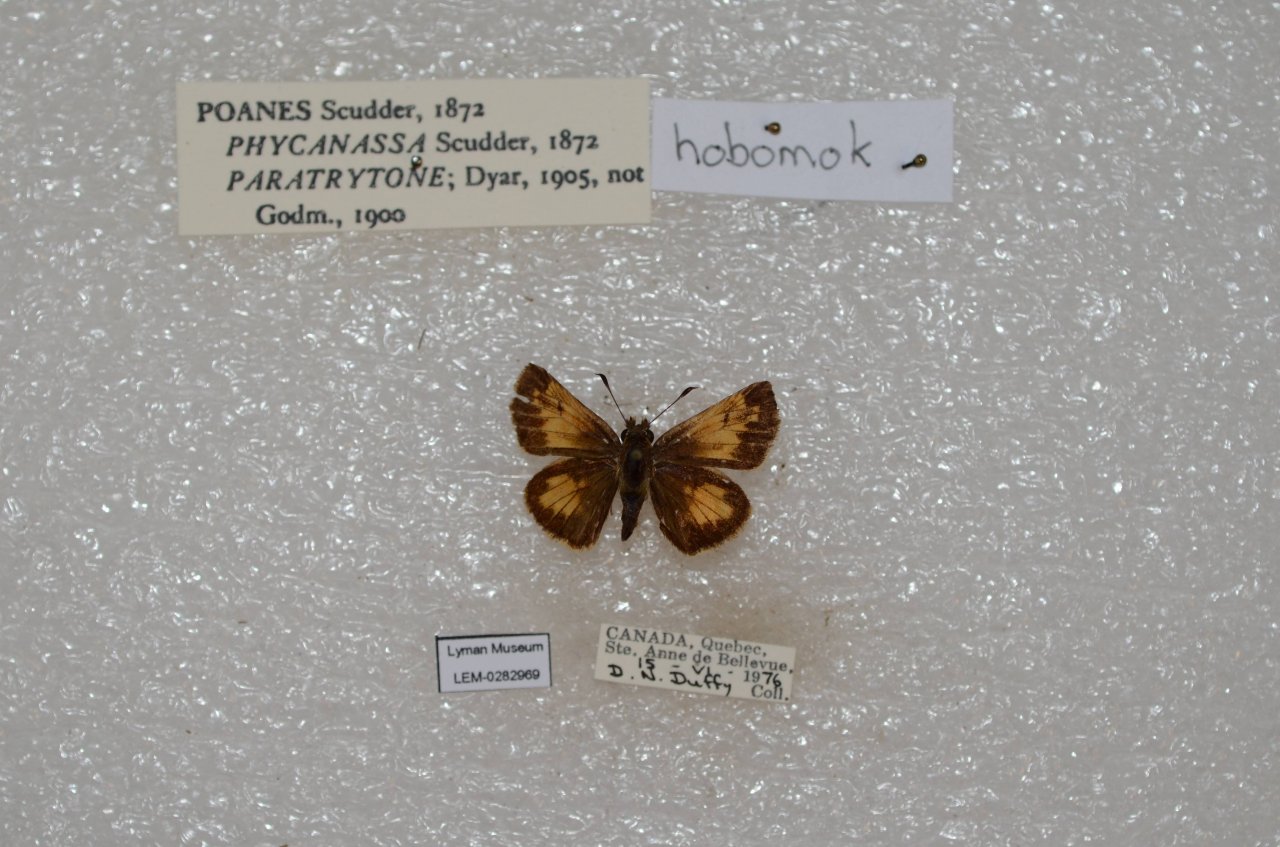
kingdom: Animalia
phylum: Arthropoda
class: Insecta
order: Lepidoptera
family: Hesperiidae
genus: Lon
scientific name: Lon hobomok
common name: Hobomok Skipper
